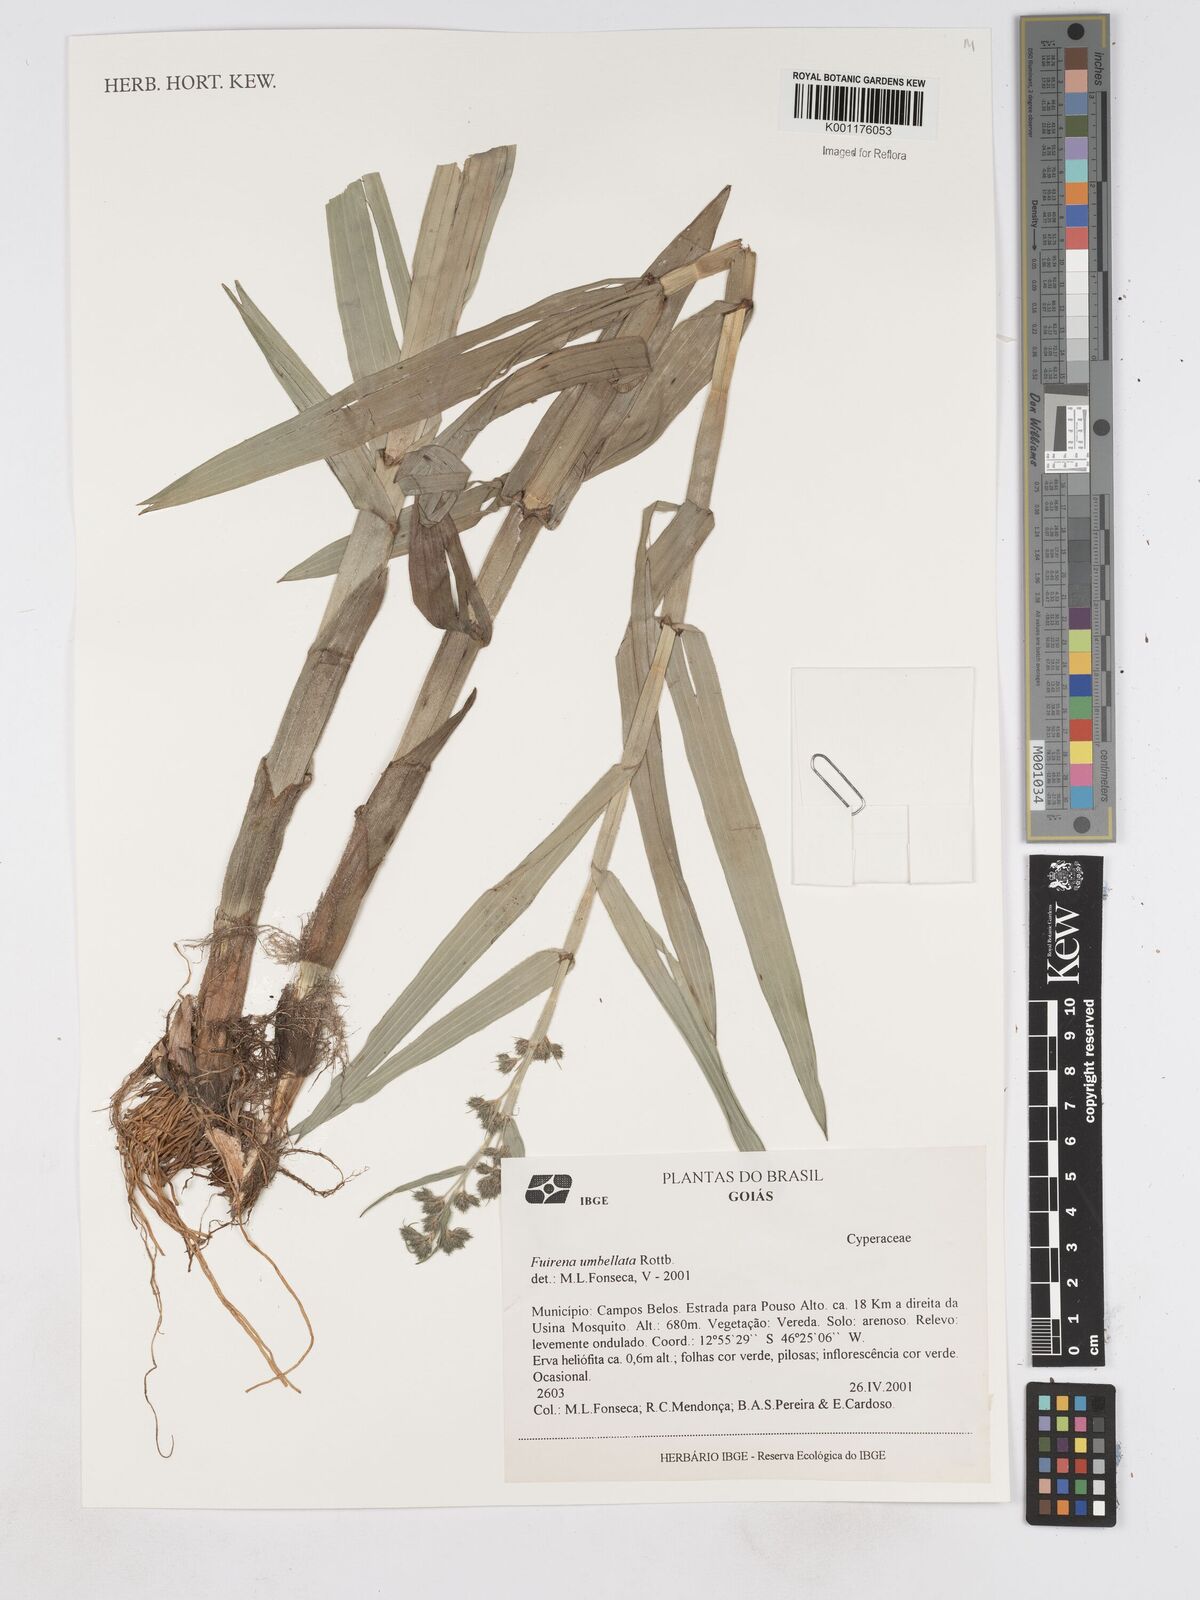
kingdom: Plantae
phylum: Tracheophyta
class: Liliopsida
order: Poales
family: Cyperaceae
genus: Fuirena
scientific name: Fuirena umbellata
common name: Yefen
